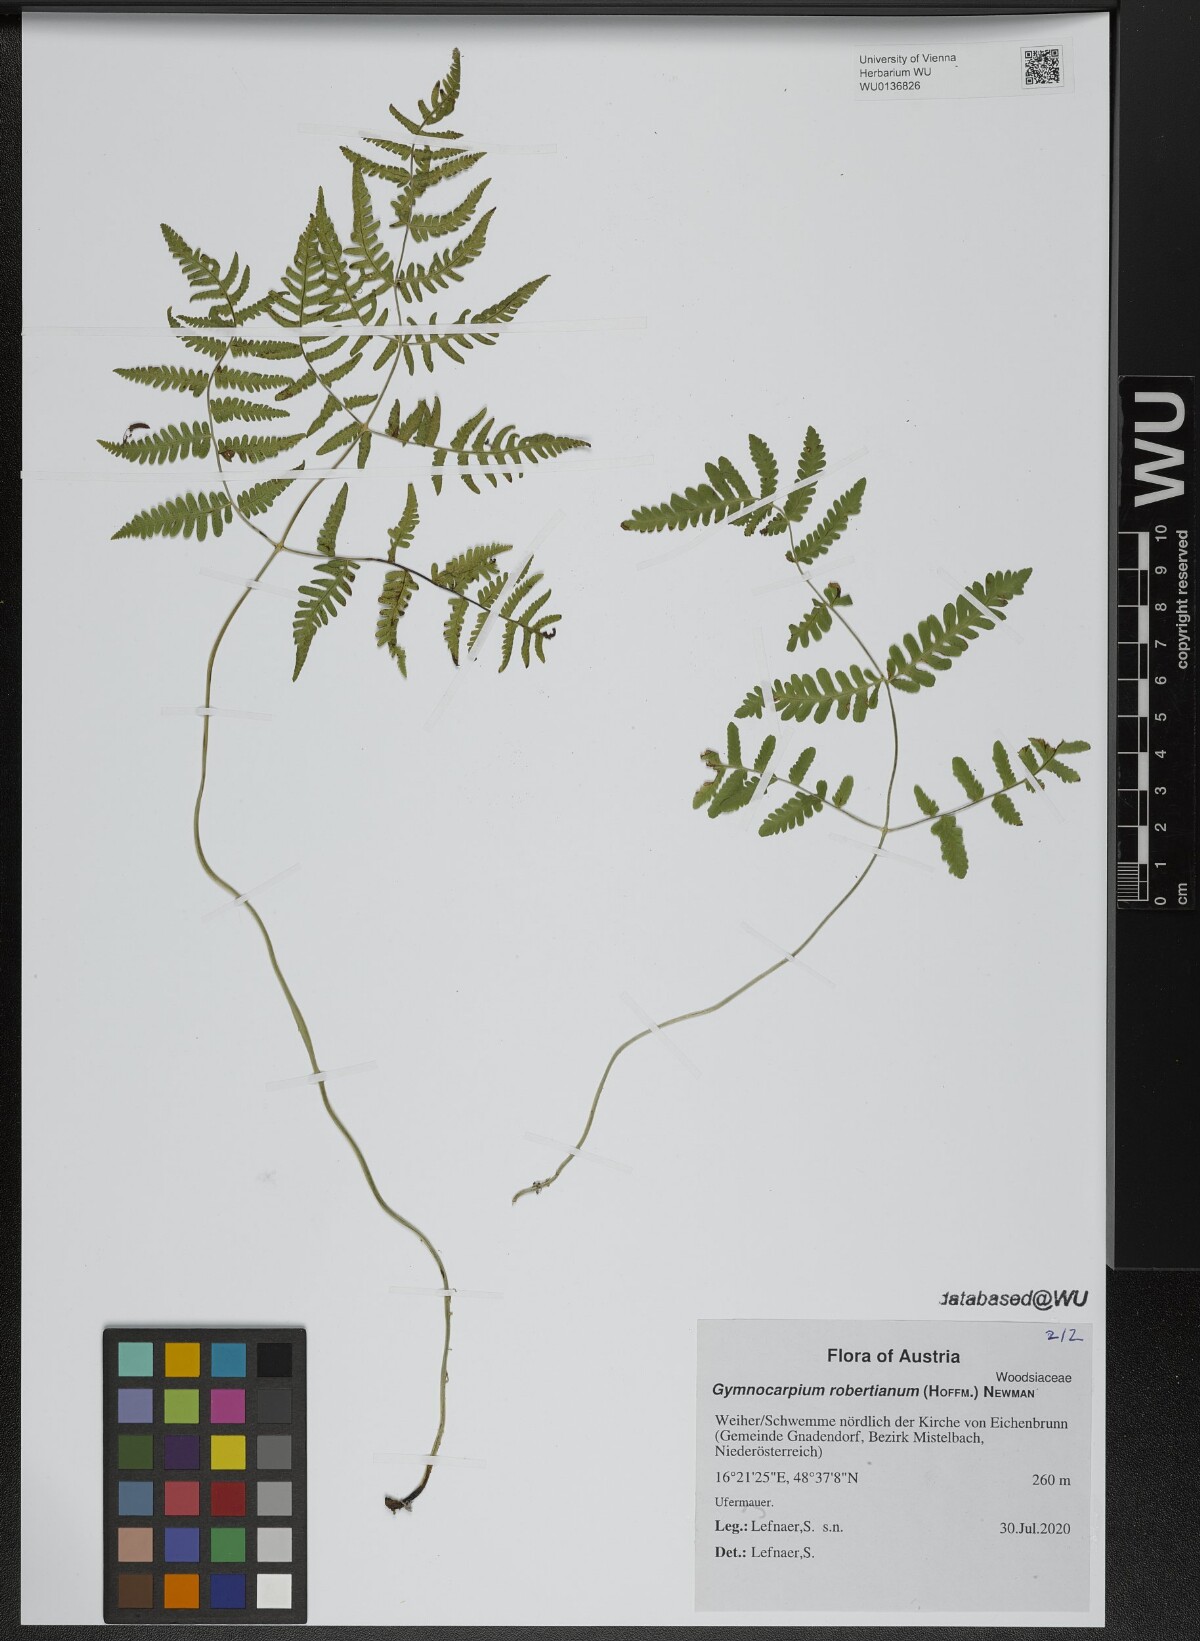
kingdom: Plantae
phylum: Tracheophyta
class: Polypodiopsida
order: Polypodiales
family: Cystopteridaceae
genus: Gymnocarpium
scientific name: Gymnocarpium robertianum
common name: Limestone fern
